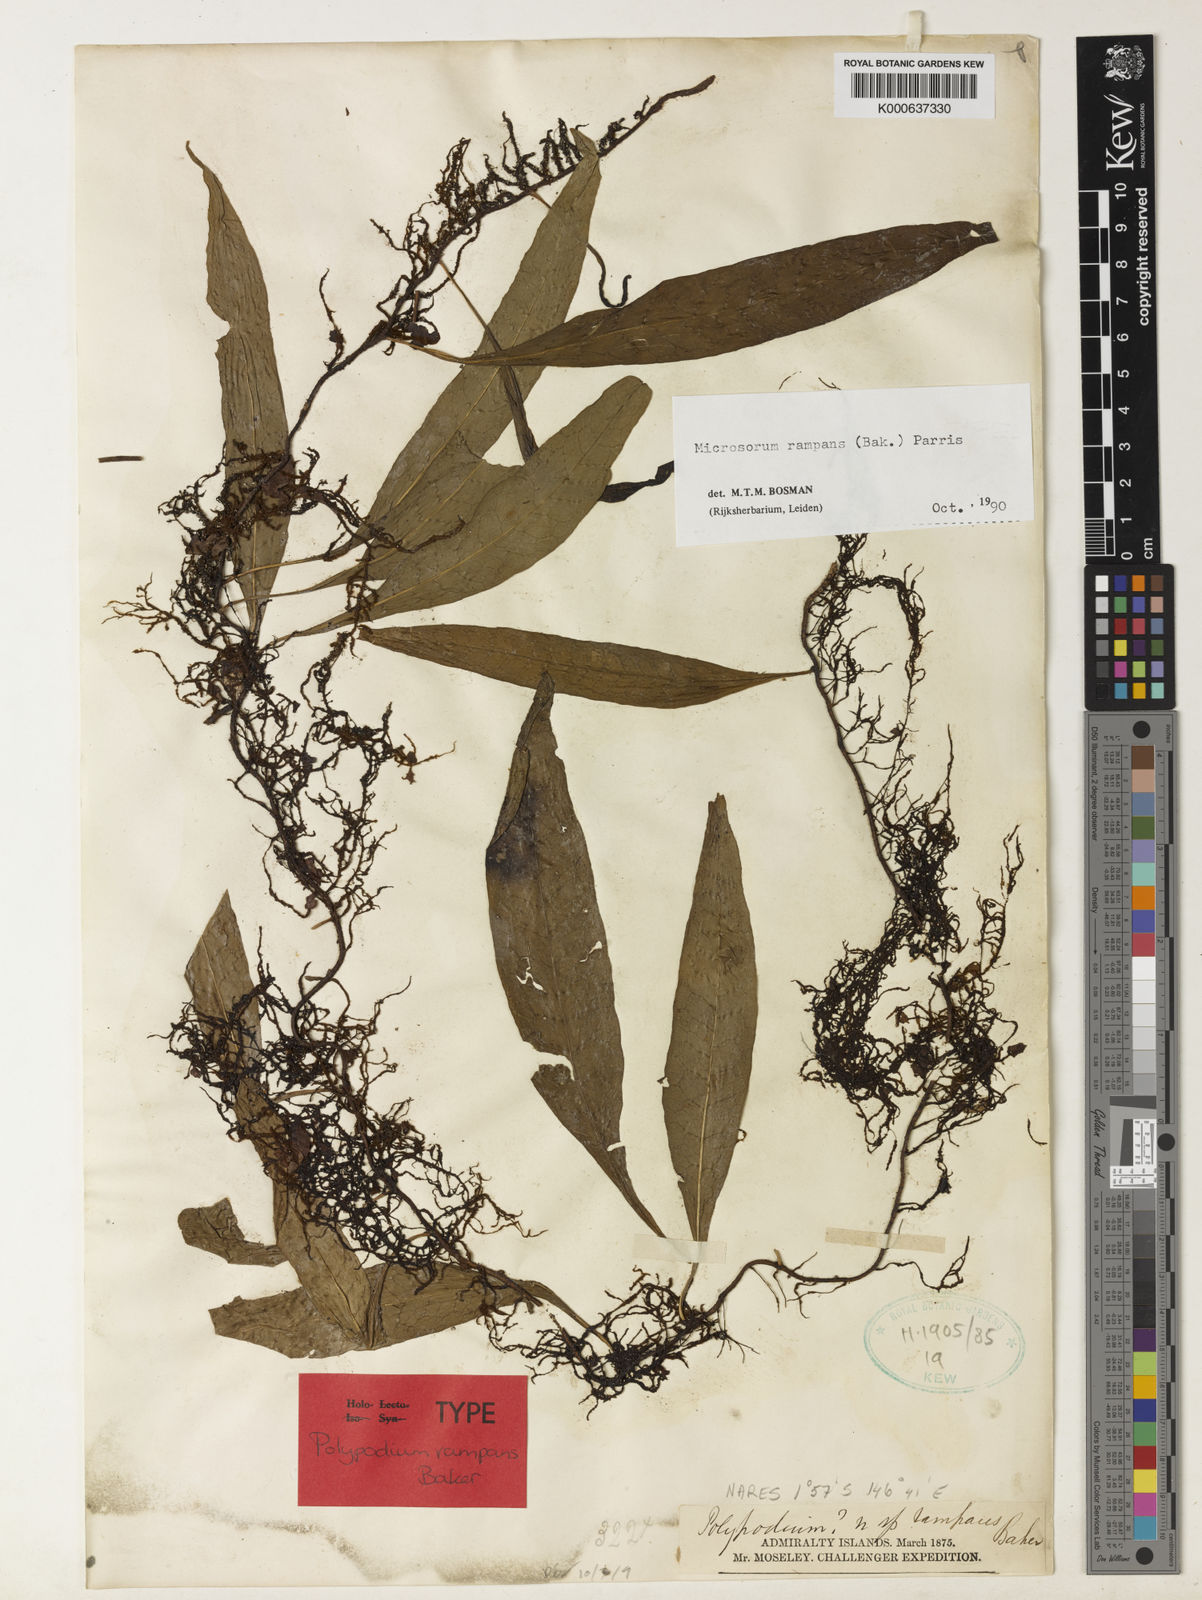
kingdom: Plantae
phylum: Tracheophyta
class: Polypodiopsida
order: Polypodiales
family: Polypodiaceae
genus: Microsorum
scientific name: Microsorum rampans
